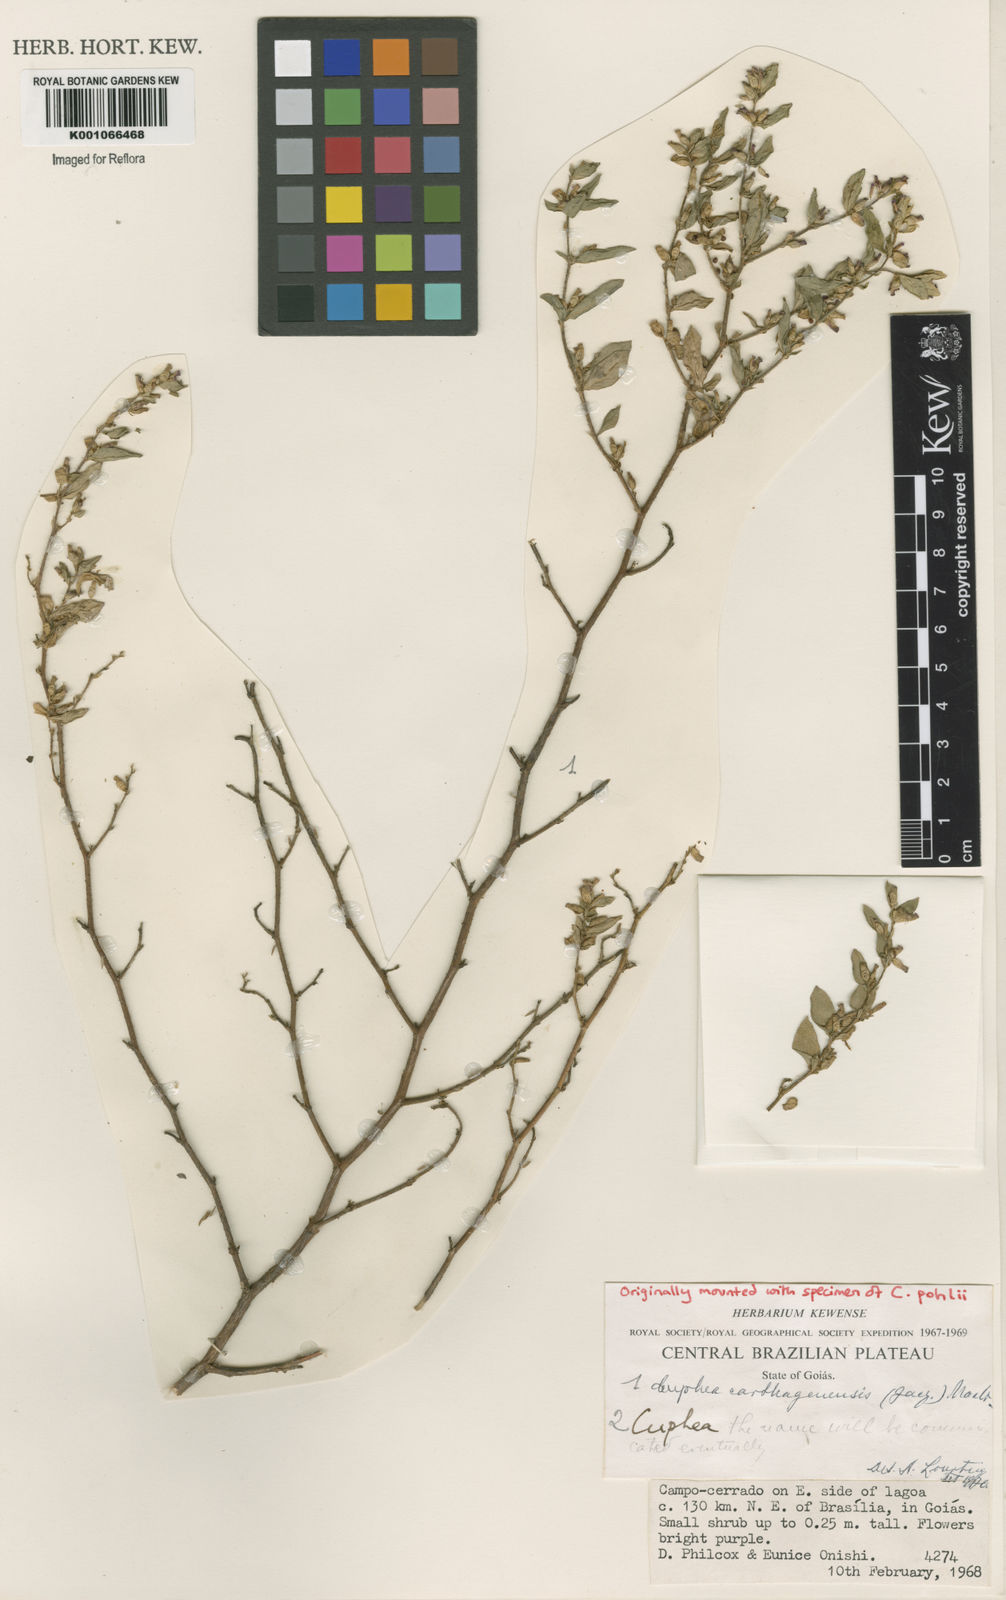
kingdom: Plantae
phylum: Tracheophyta
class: Magnoliopsida
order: Myrtales
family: Lythraceae
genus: Cuphea
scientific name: Cuphea carthagenensis
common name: Colombian waxweed
